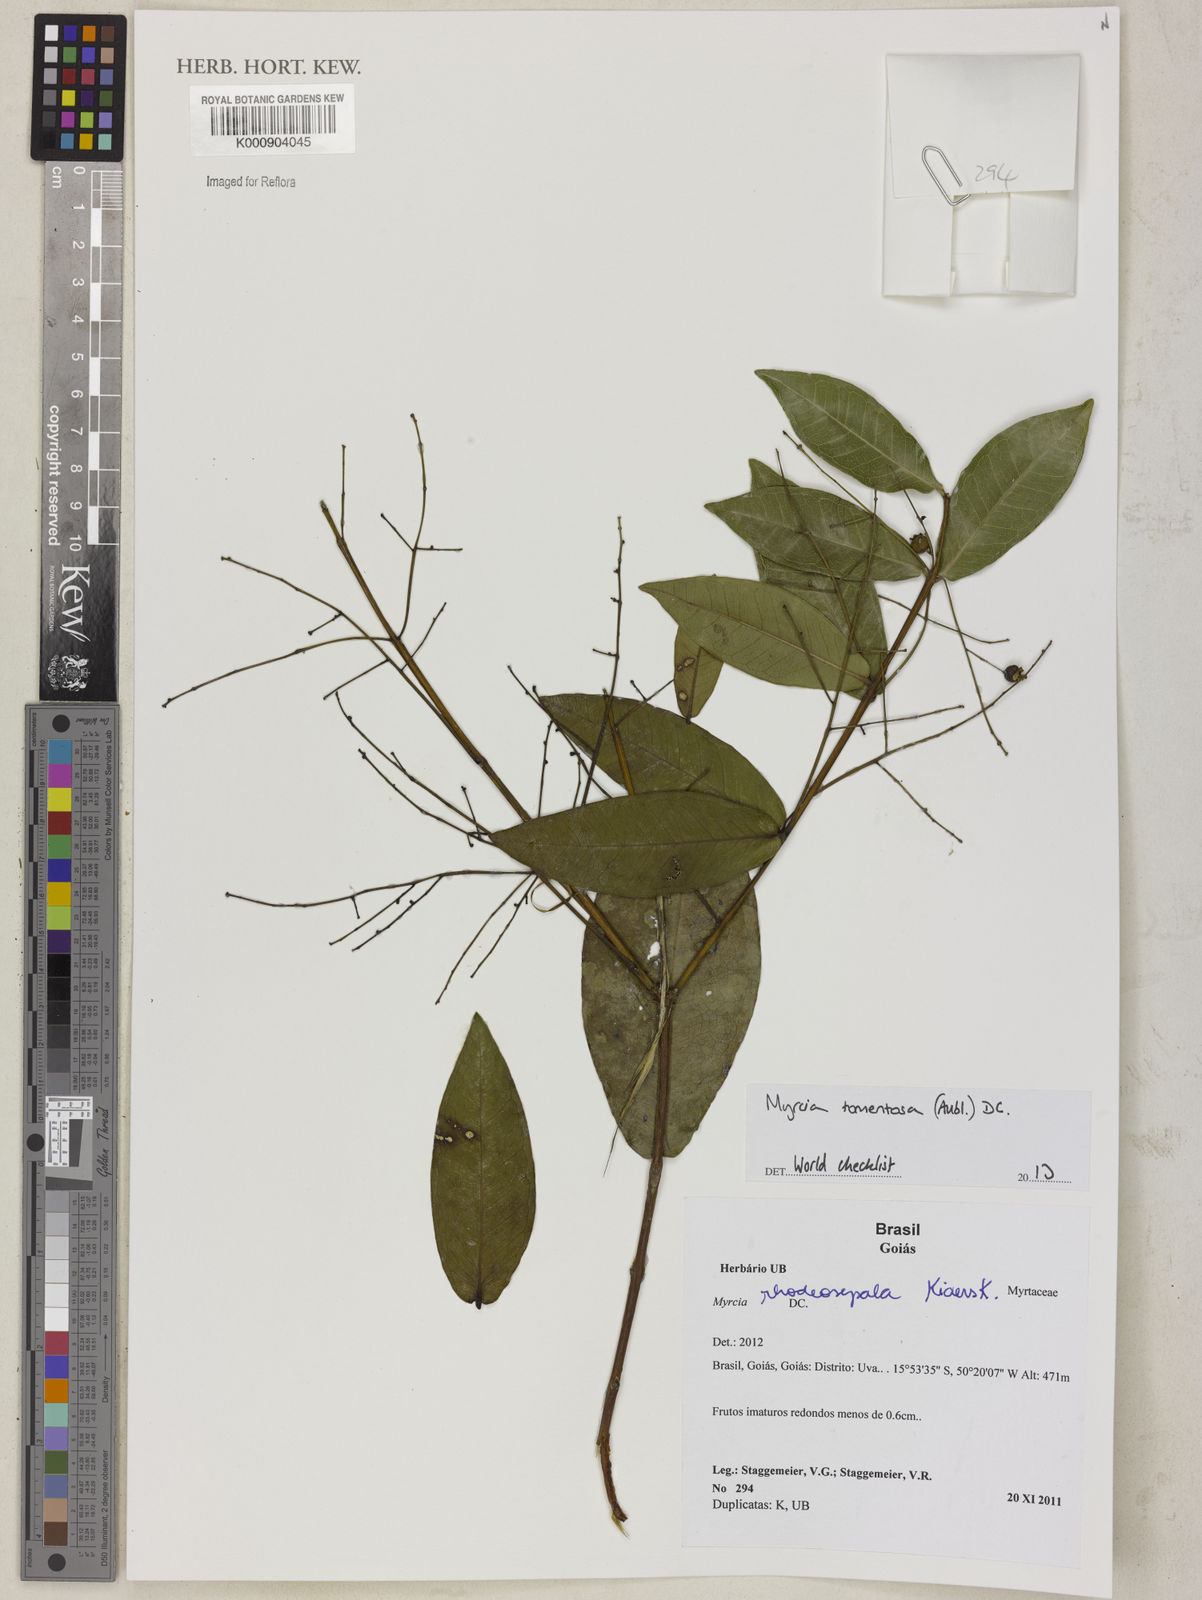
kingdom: Plantae
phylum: Tracheophyta
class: Magnoliopsida
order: Myrtales
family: Myrtaceae
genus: Myrcia
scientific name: Myrcia tomentosa
